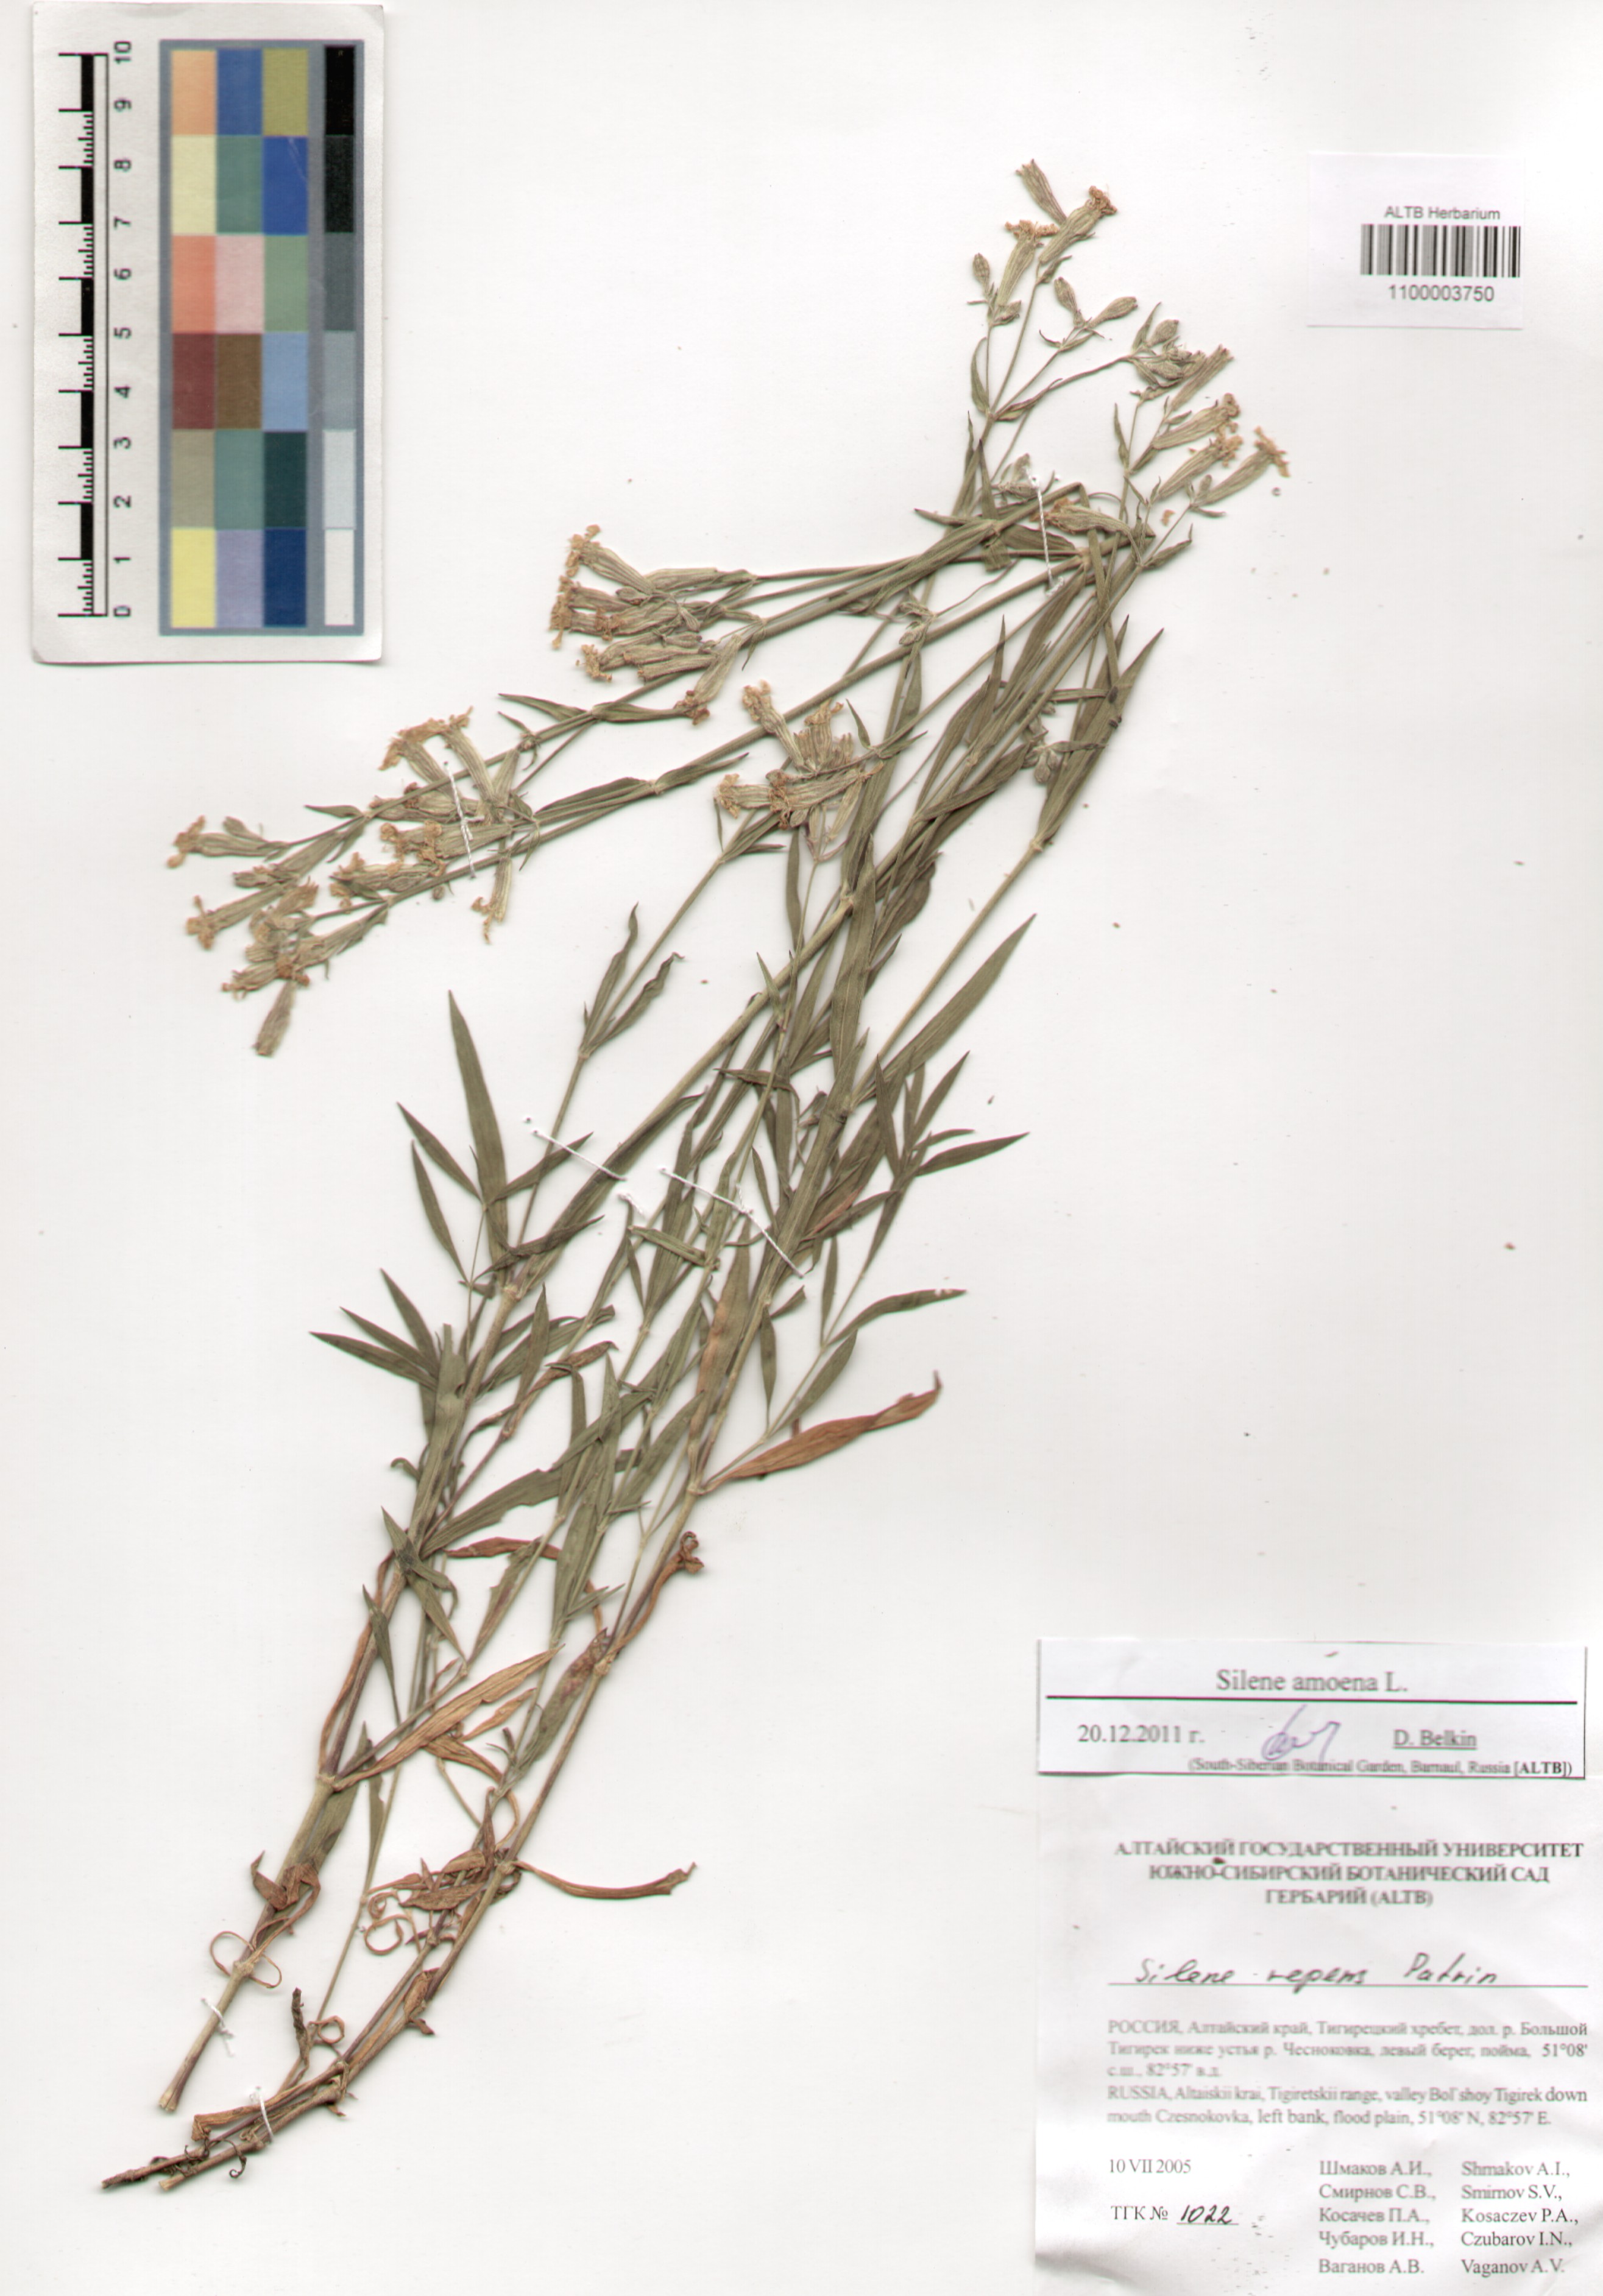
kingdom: Plantae
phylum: Tracheophyta
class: Magnoliopsida
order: Caryophyllales
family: Caryophyllaceae
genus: Silene
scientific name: Silene amoena
